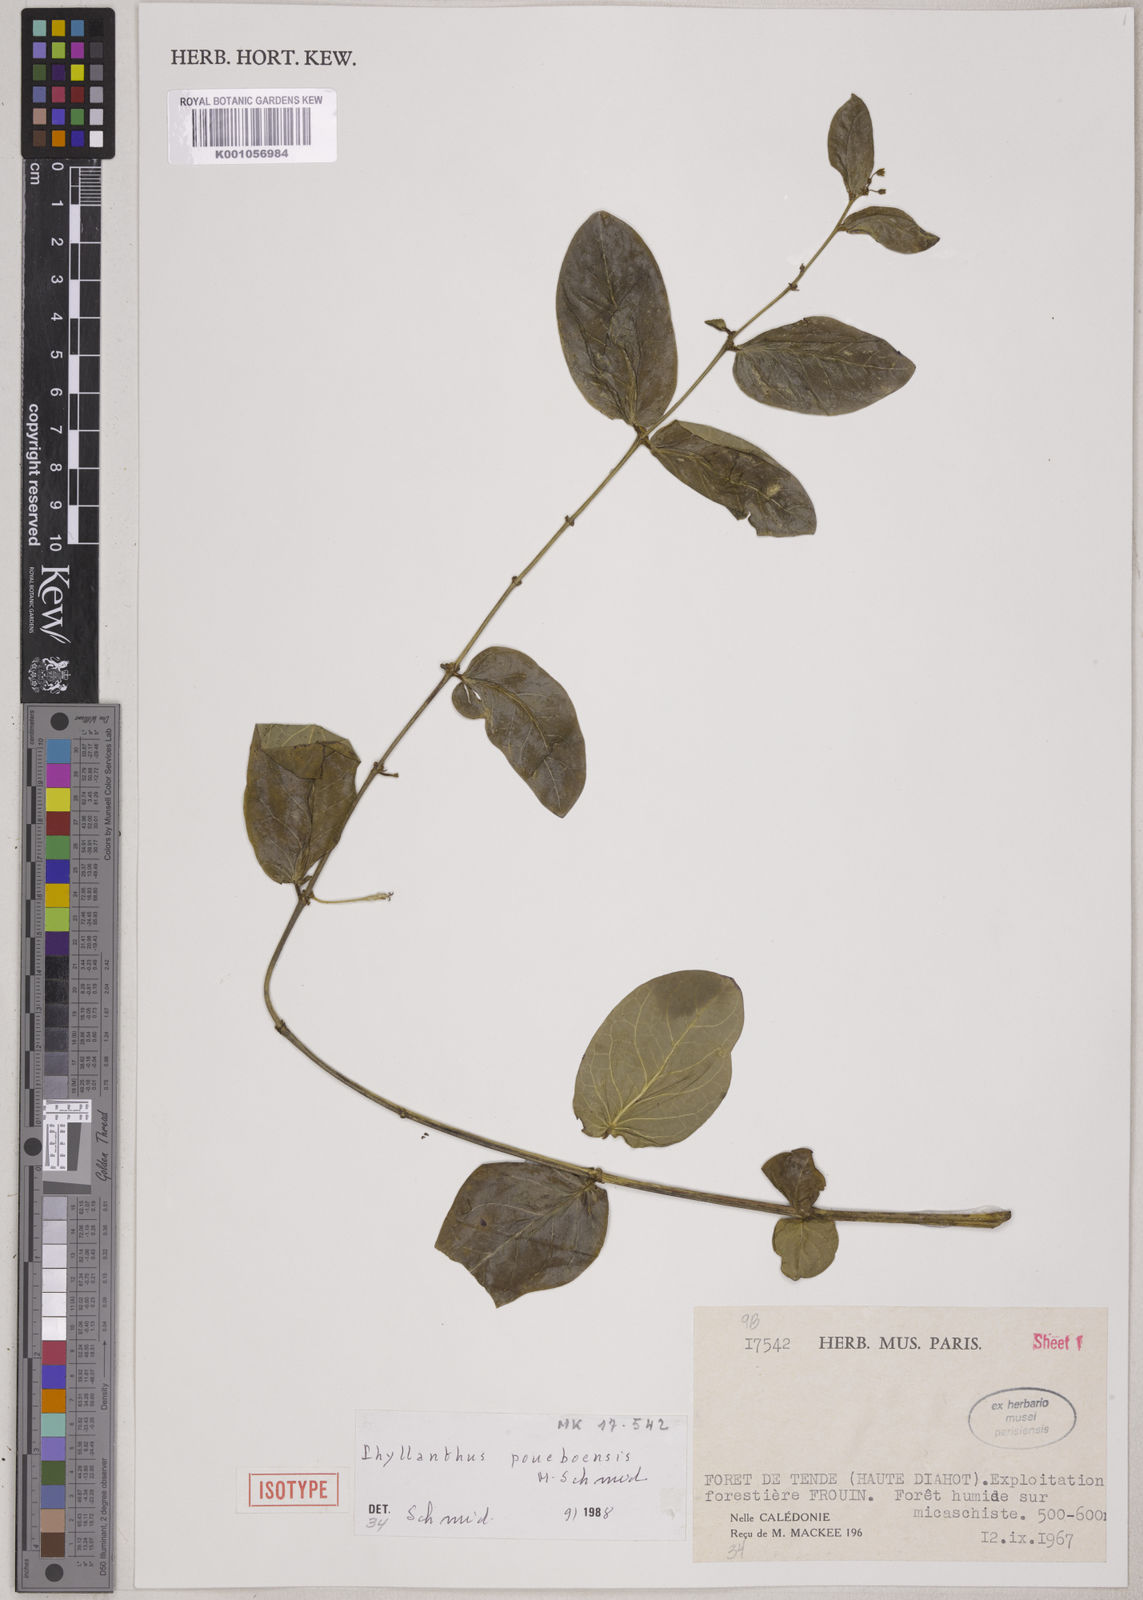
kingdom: Plantae
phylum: Tracheophyta
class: Magnoliopsida
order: Malpighiales
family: Phyllanthaceae
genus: Phyllanthus
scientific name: Phyllanthus poueboensis
